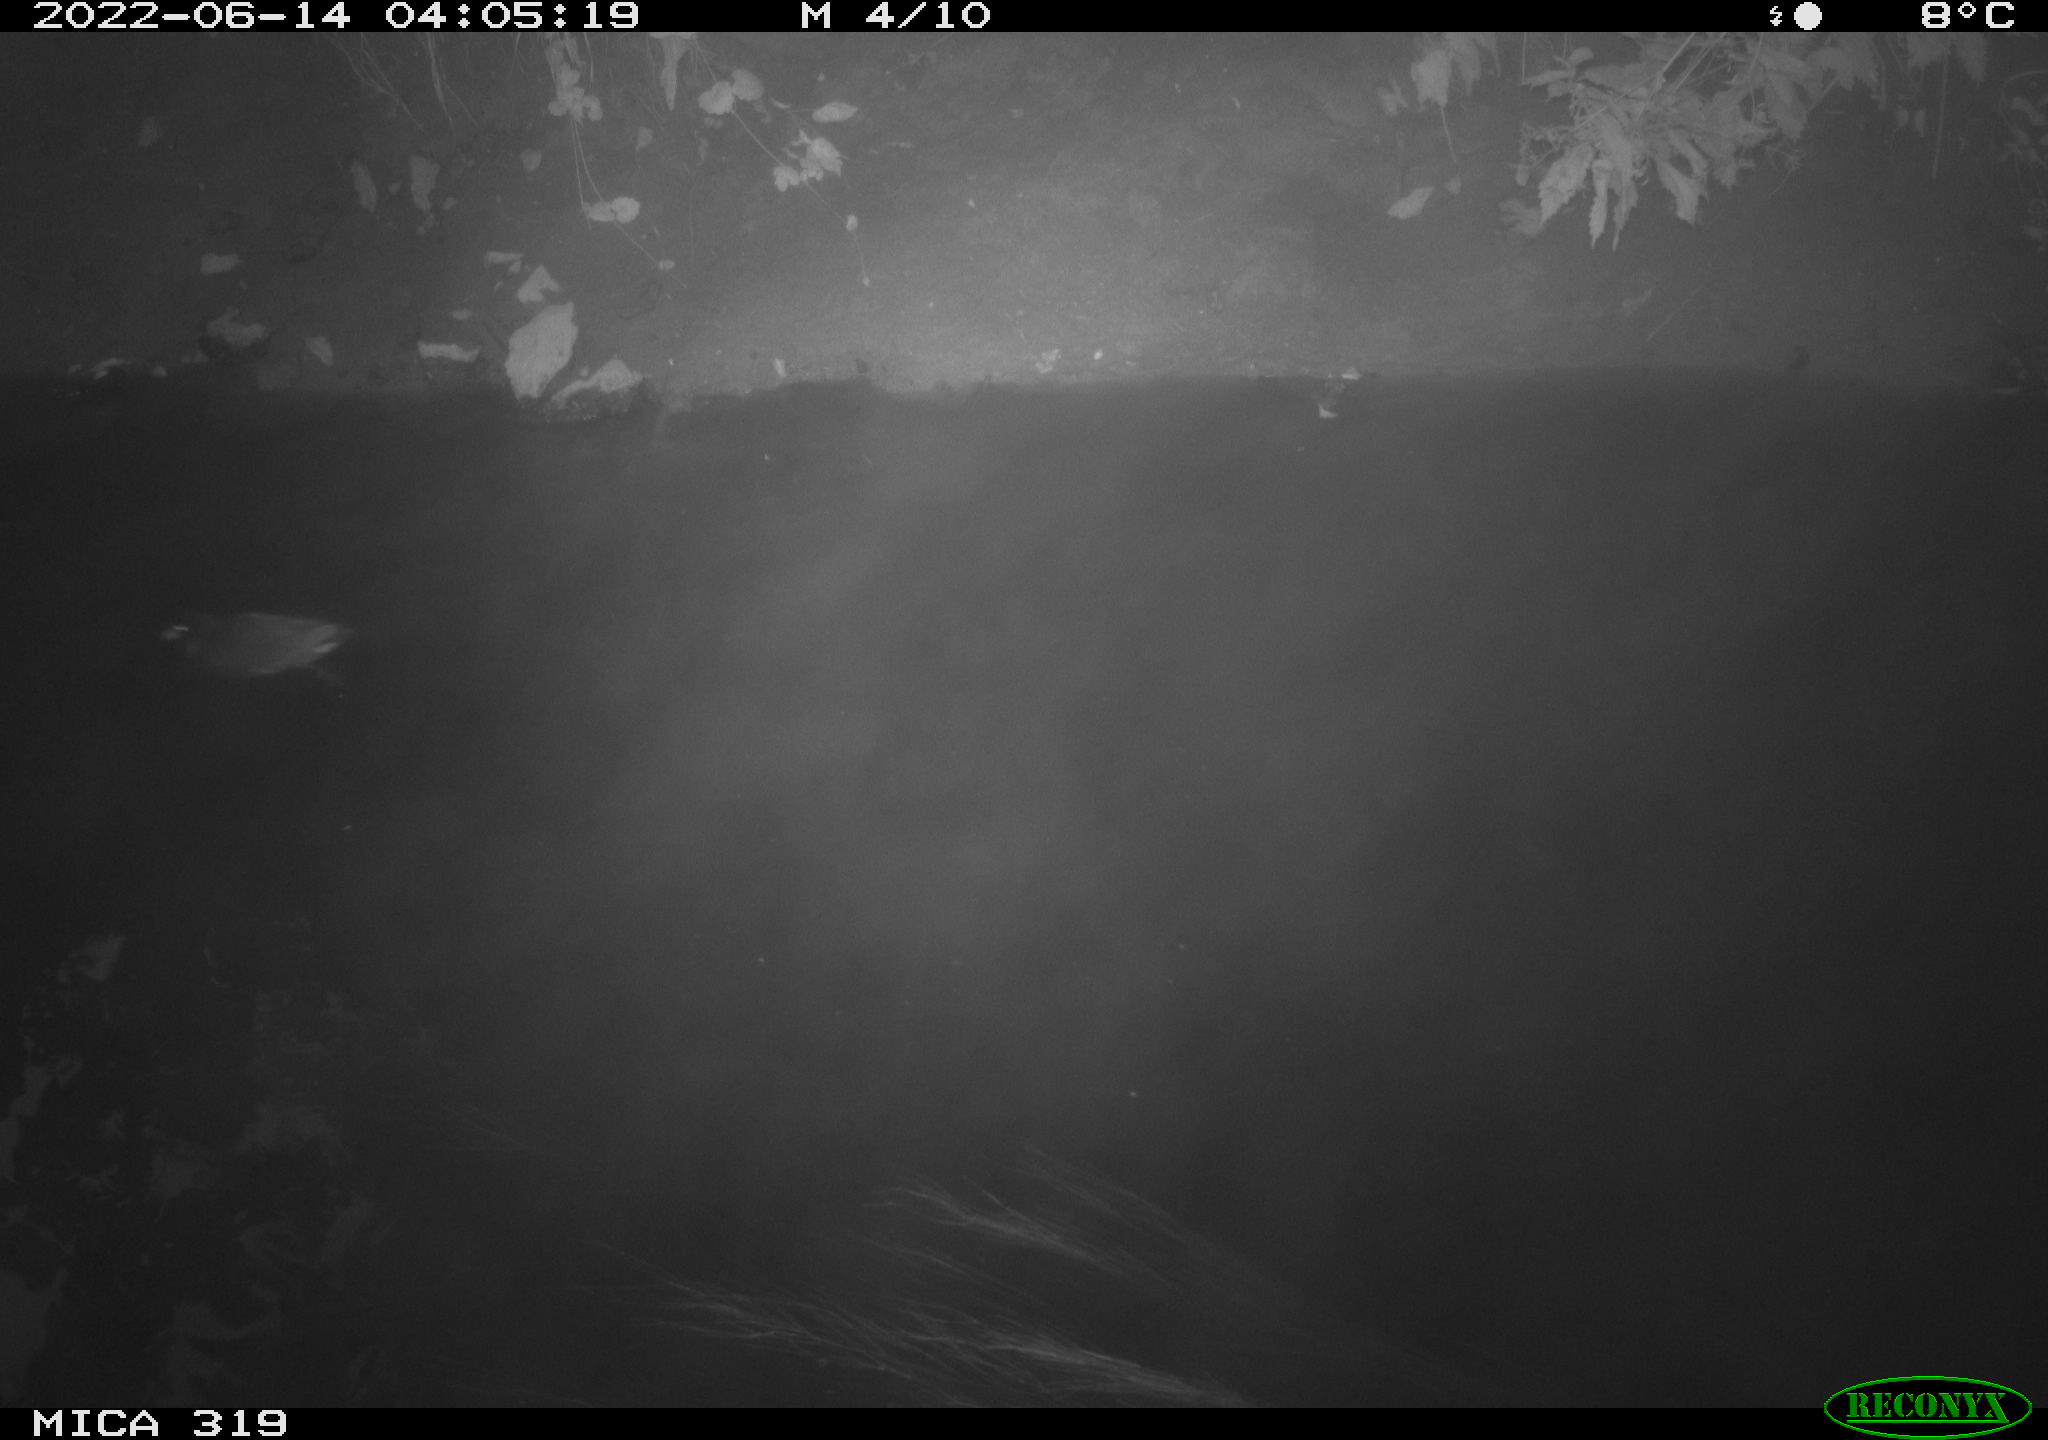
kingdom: Animalia
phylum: Chordata
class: Aves
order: Gruiformes
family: Rallidae
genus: Gallinula
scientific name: Gallinula chloropus
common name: Common moorhen
